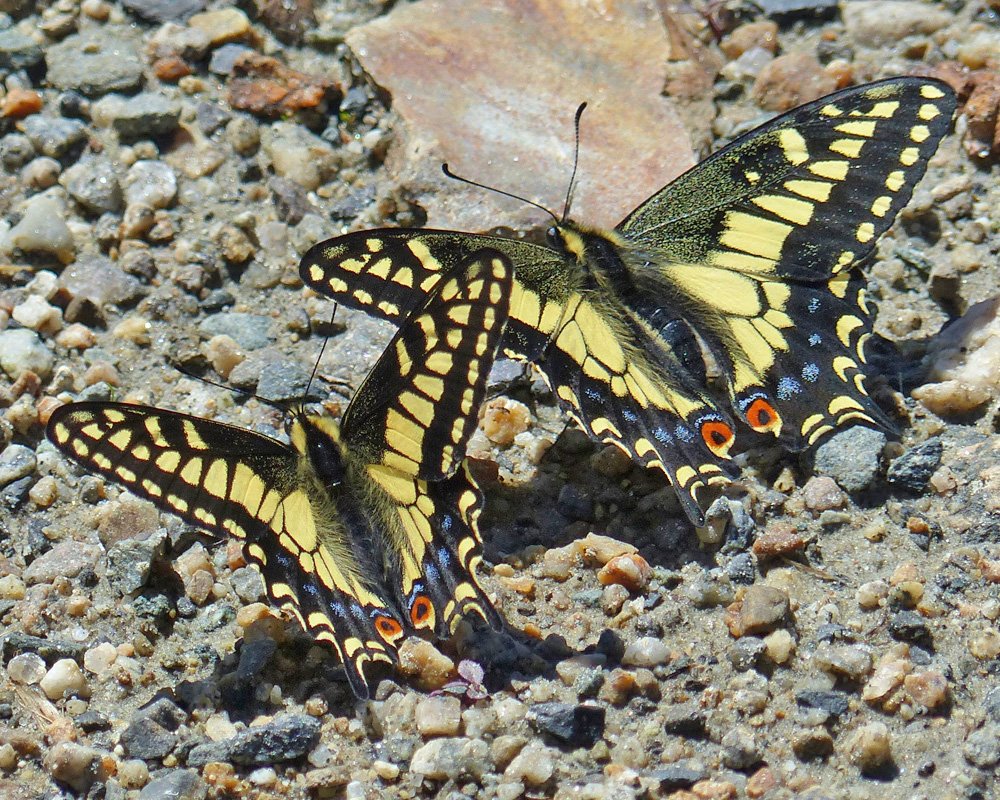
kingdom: Animalia
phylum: Arthropoda
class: Insecta
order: Lepidoptera
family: Papilionidae
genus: Papilio
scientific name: Papilio zelicaon
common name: Anise Swallowtail
